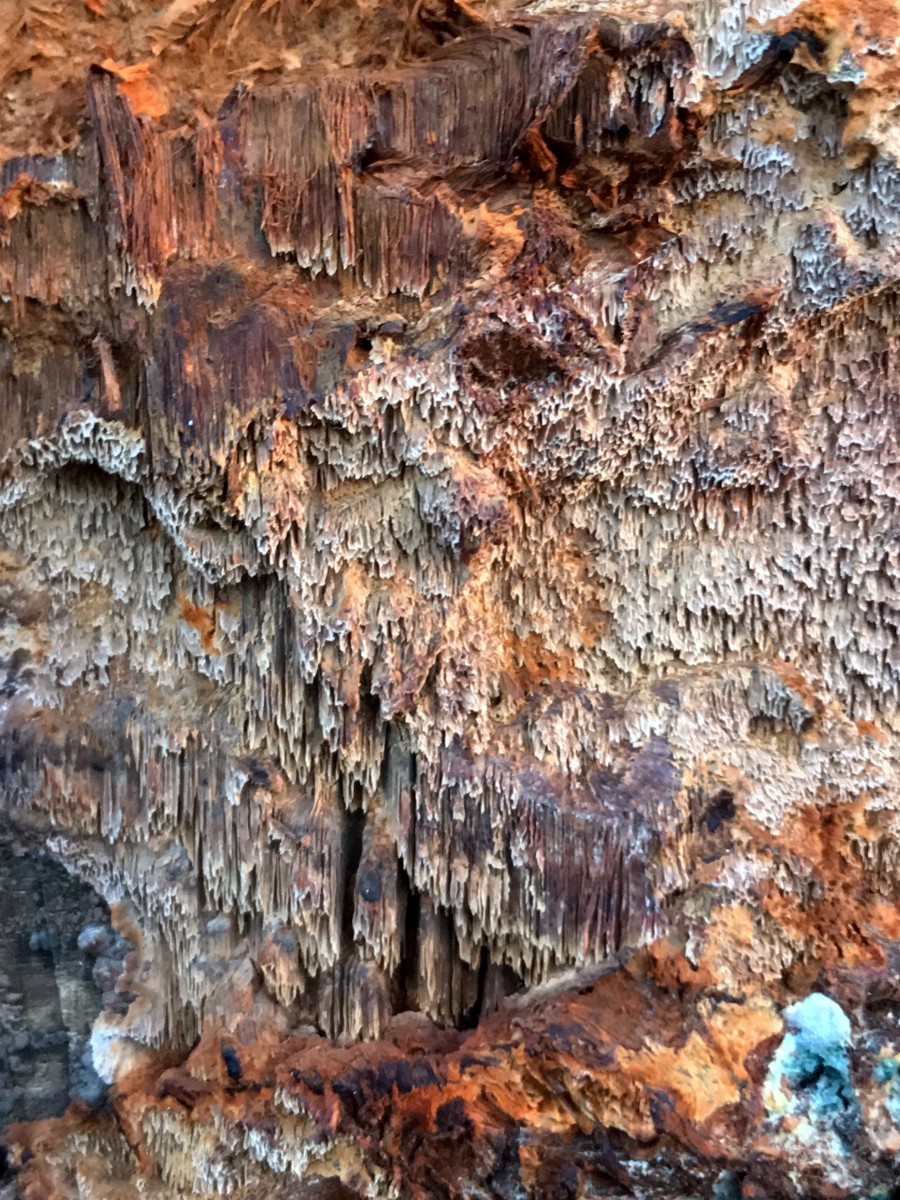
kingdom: Fungi
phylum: Basidiomycota
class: Agaricomycetes
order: Hymenochaetales
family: Hymenochaetaceae
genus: Mensularia
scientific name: Mensularia nodulosa
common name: bøge-spejlporesvamp
